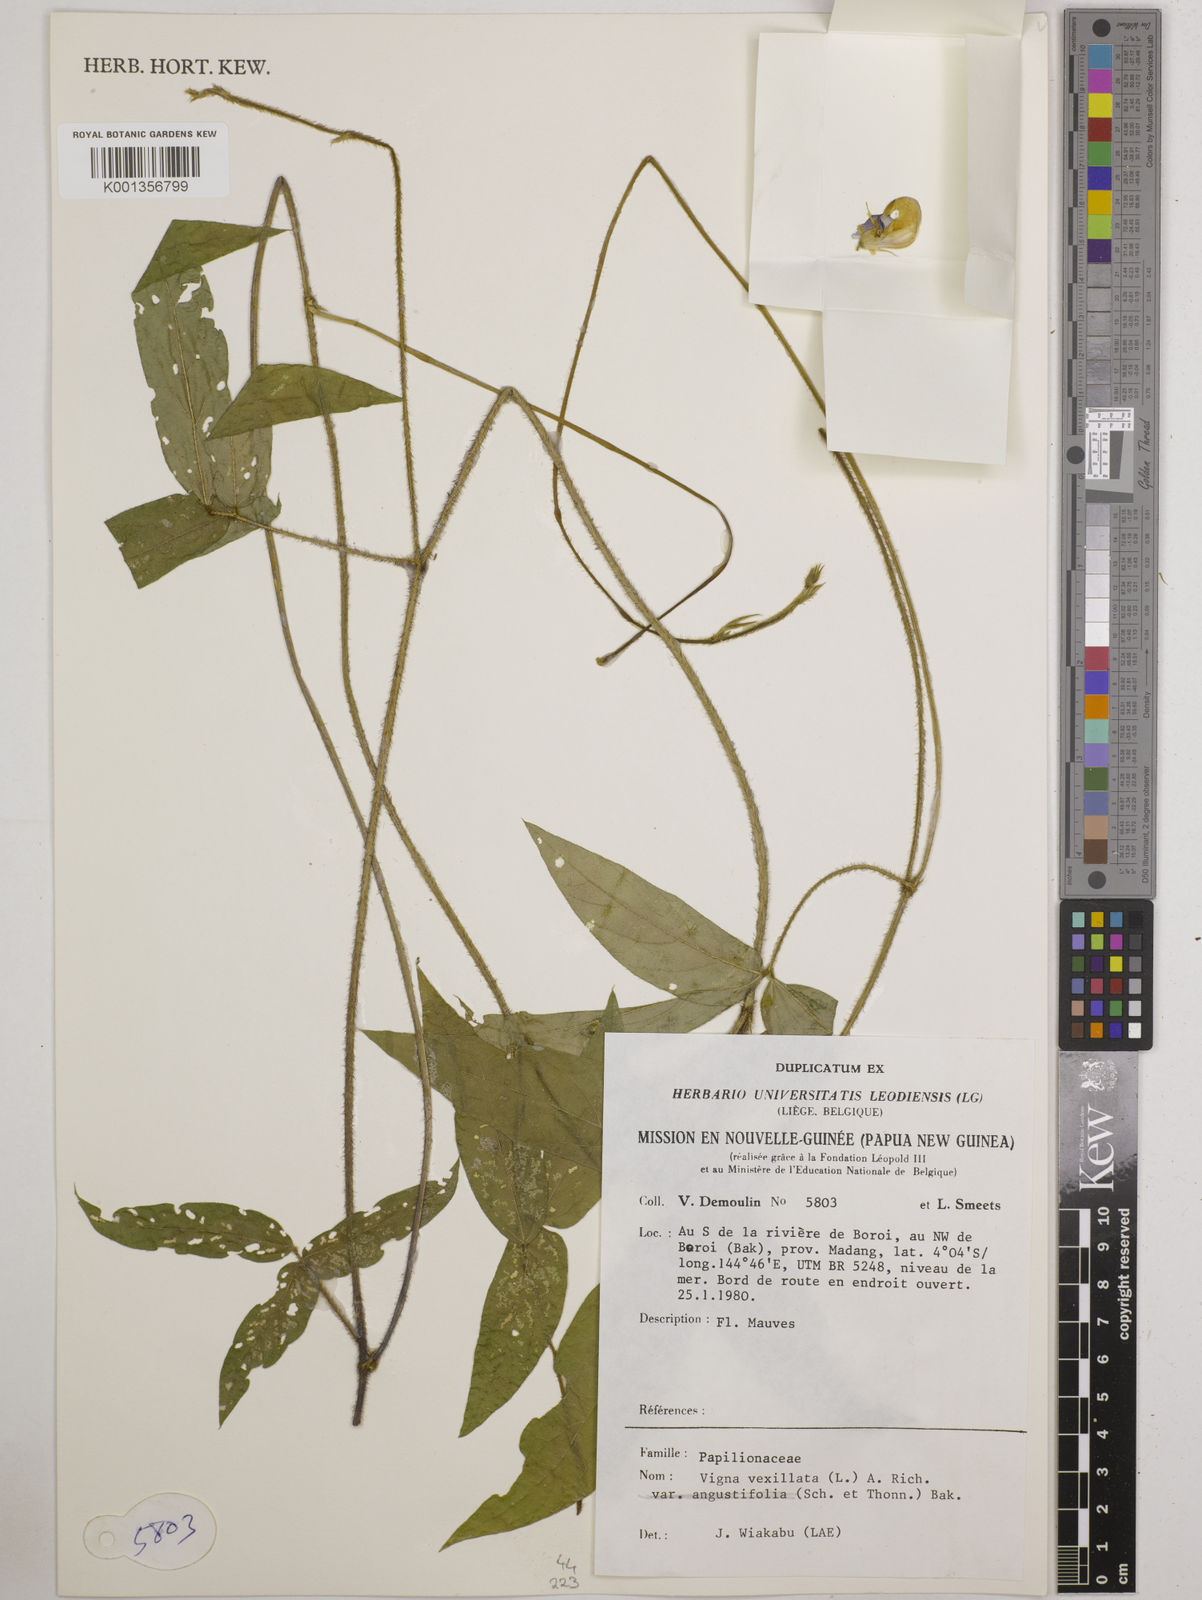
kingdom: Plantae
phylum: Tracheophyta
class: Magnoliopsida
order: Fabales
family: Fabaceae
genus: Vigna
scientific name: Vigna vexillata
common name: Zombi pea
